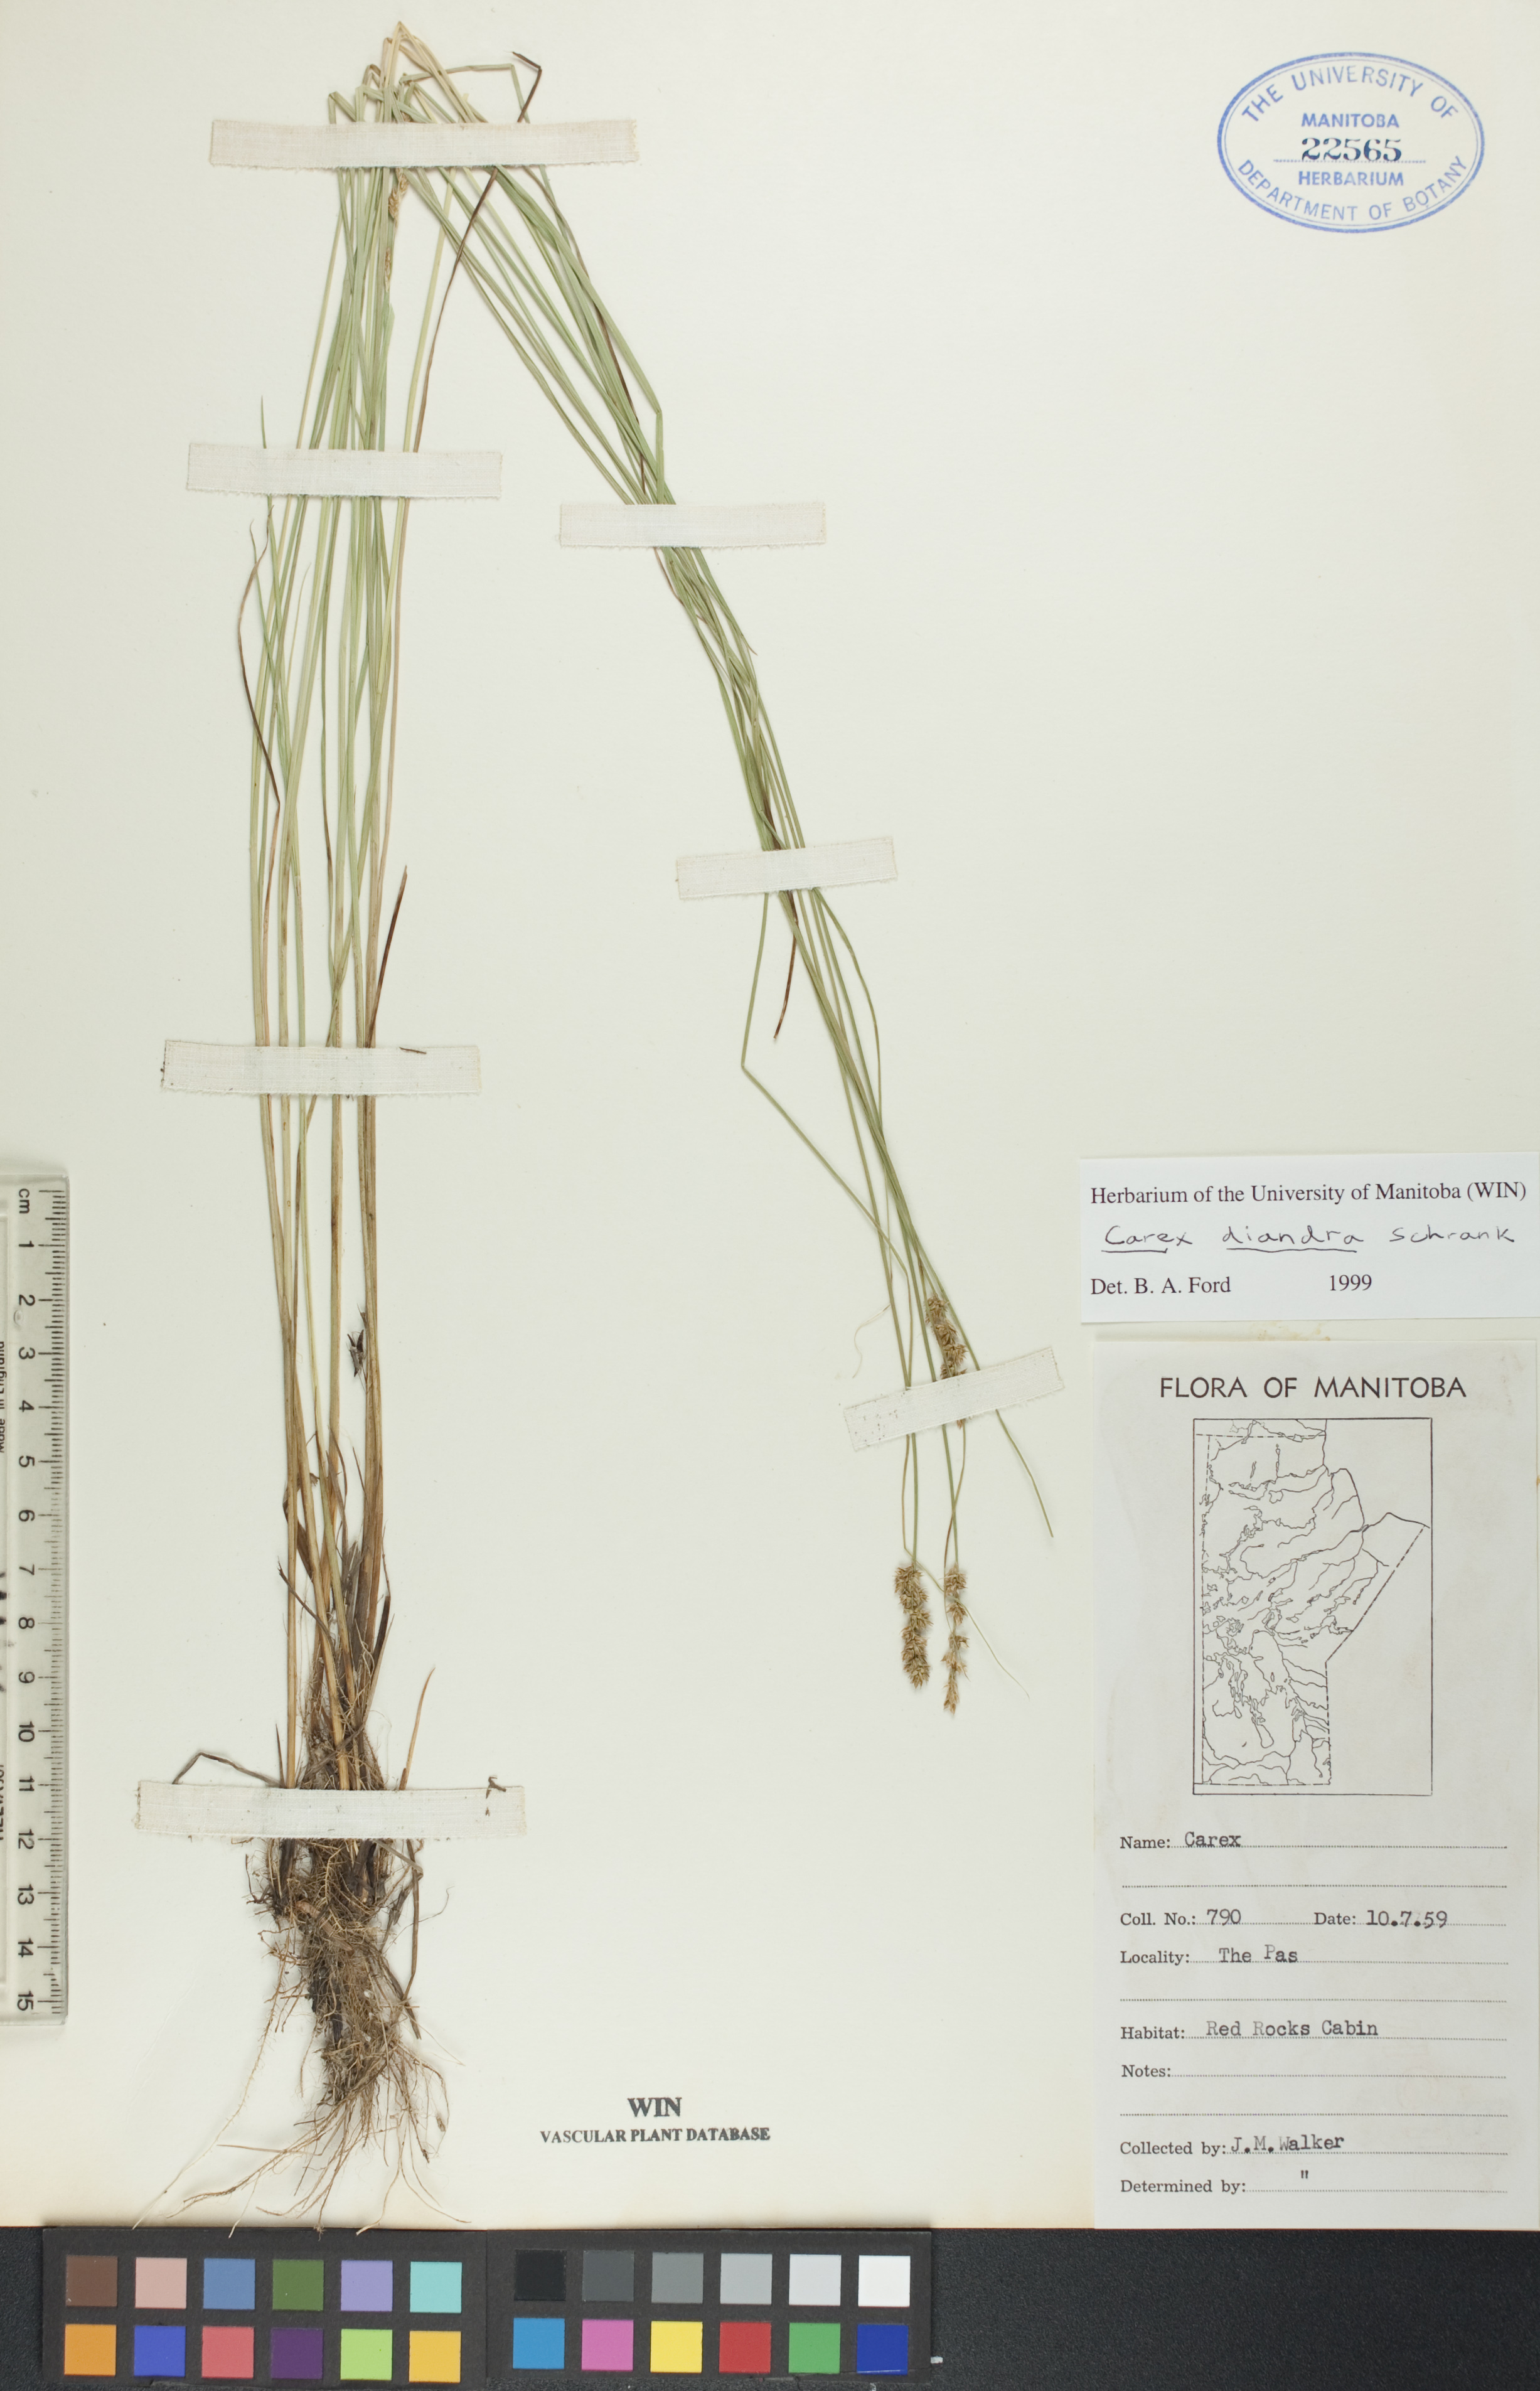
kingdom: Plantae
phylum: Tracheophyta
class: Liliopsida
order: Poales
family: Cyperaceae
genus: Carex
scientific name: Carex diandra
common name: Lesser tussock-sedge
